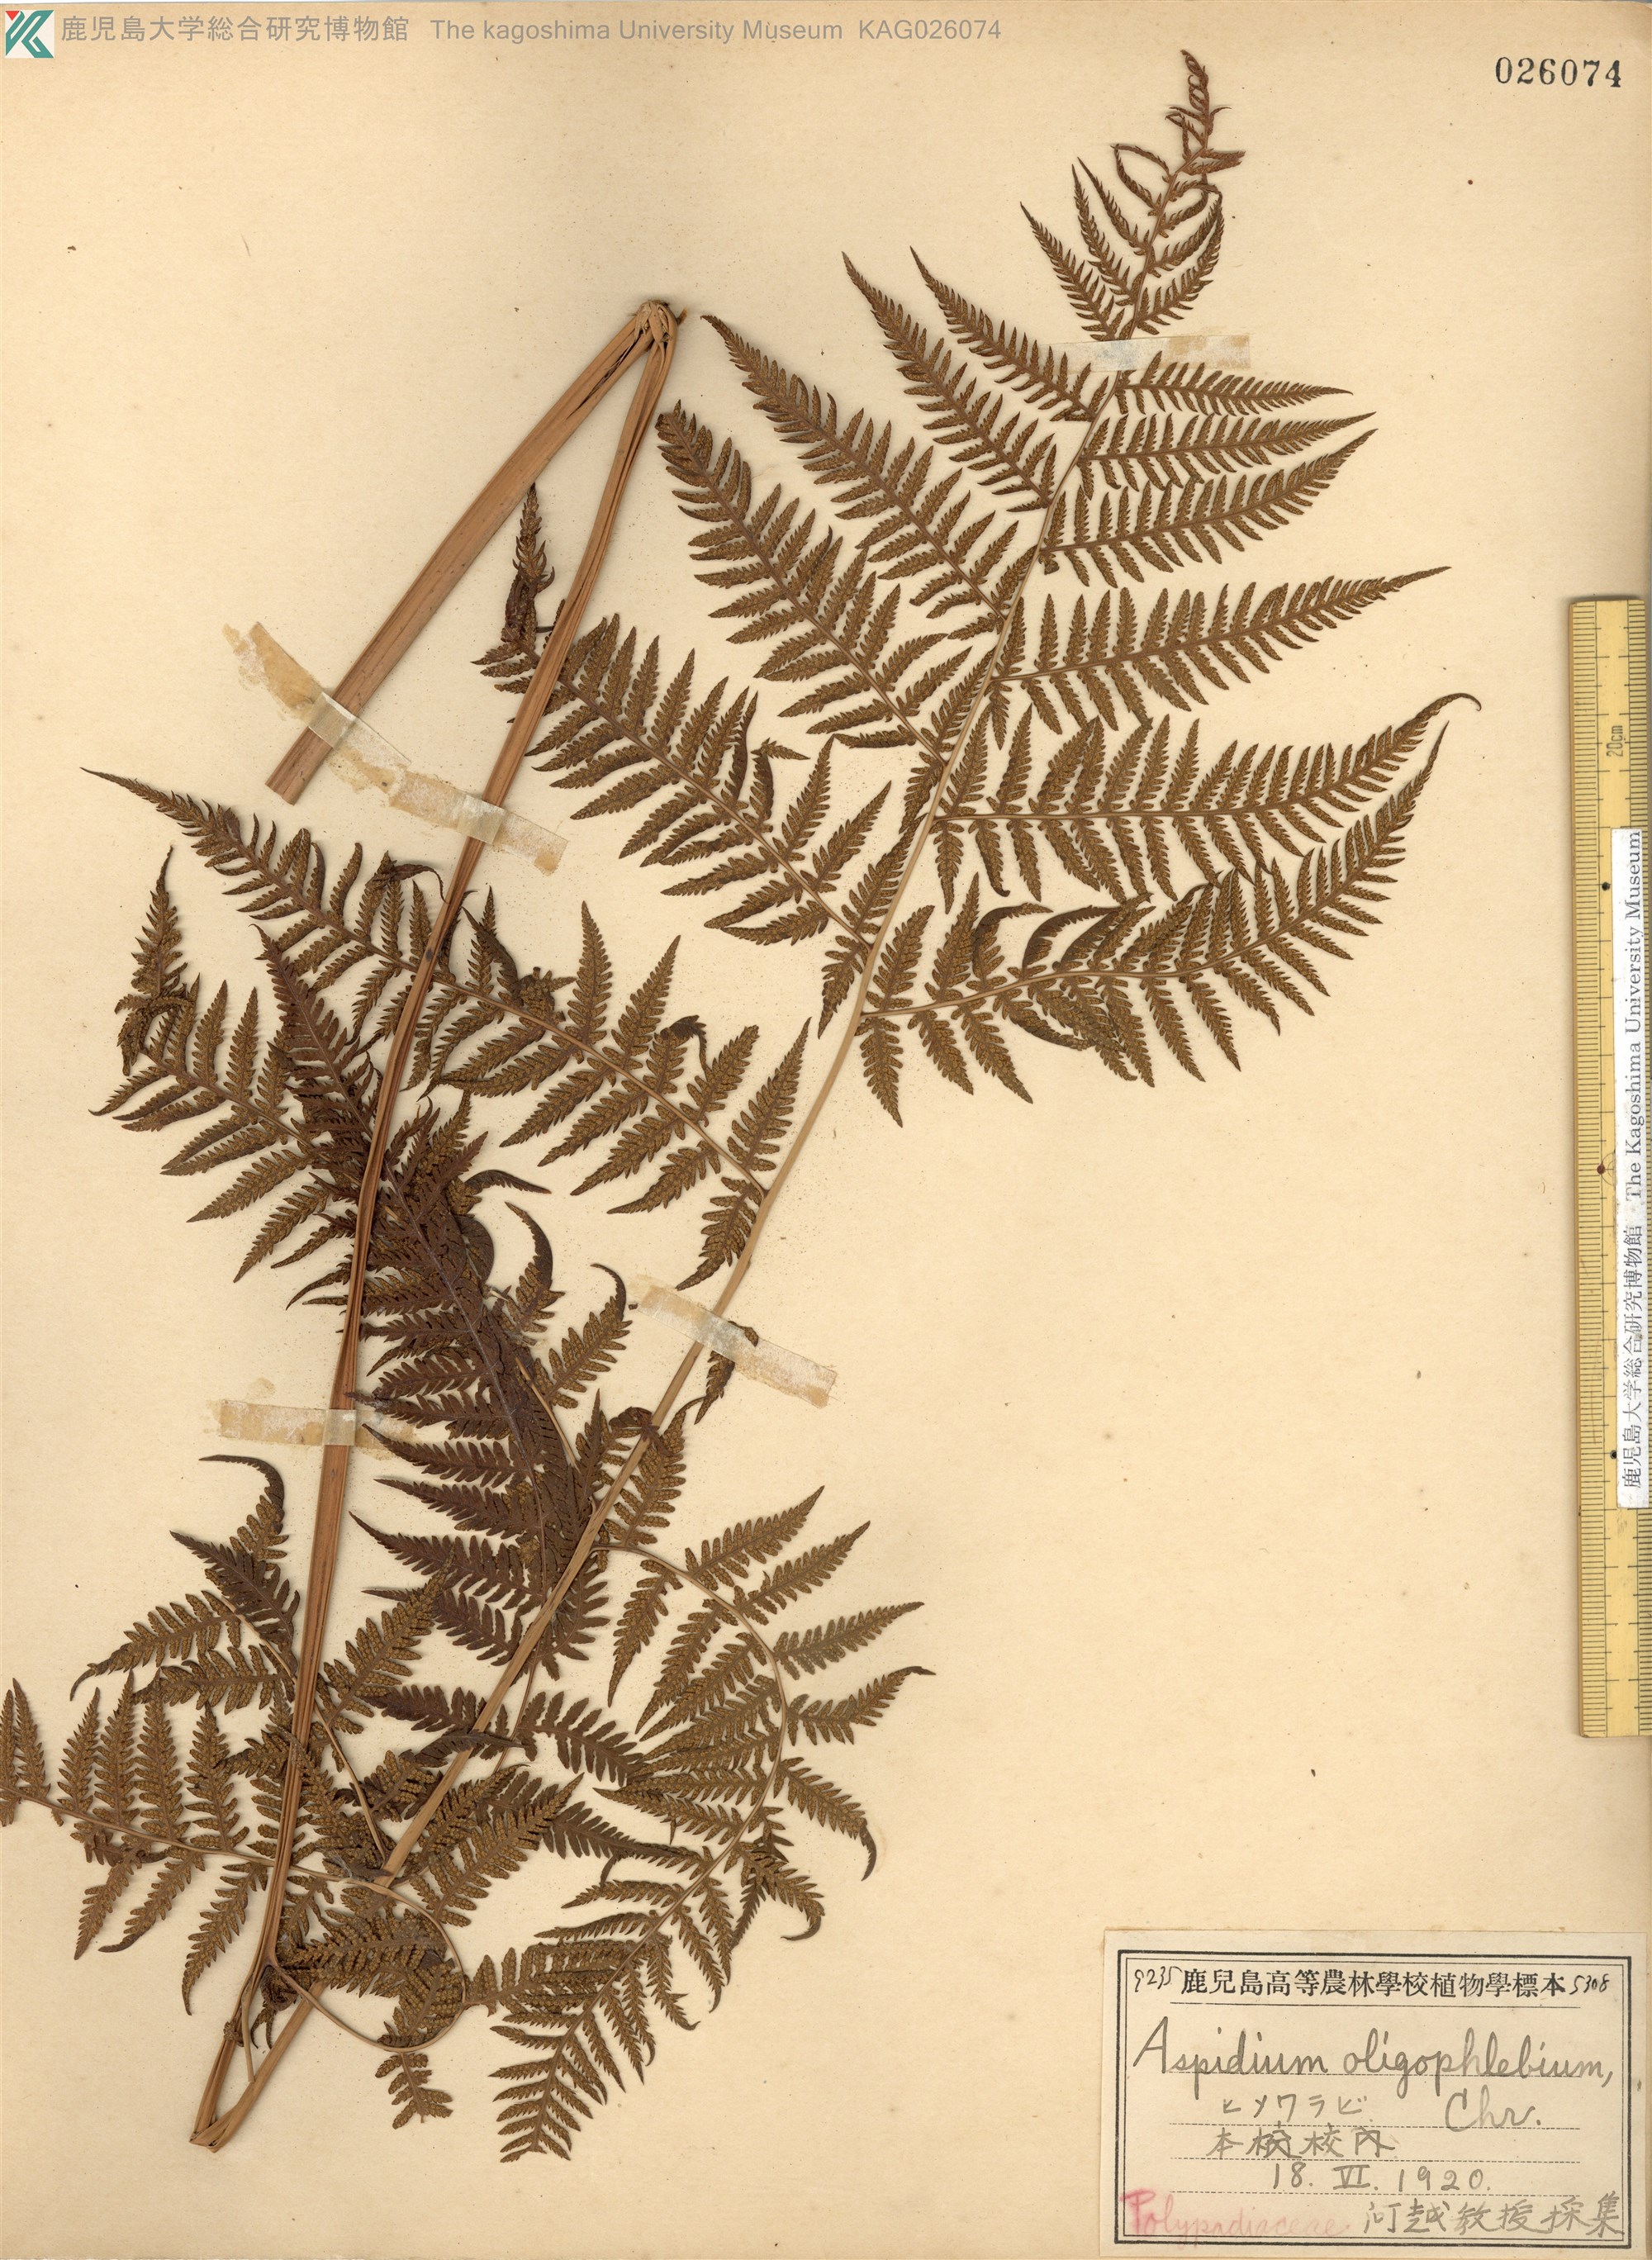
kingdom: Plantae
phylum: Tracheophyta
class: Polypodiopsida
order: Polypodiales
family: Thelypteridaceae
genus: Macrothelypteris
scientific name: Macrothelypteris oligophlebia
